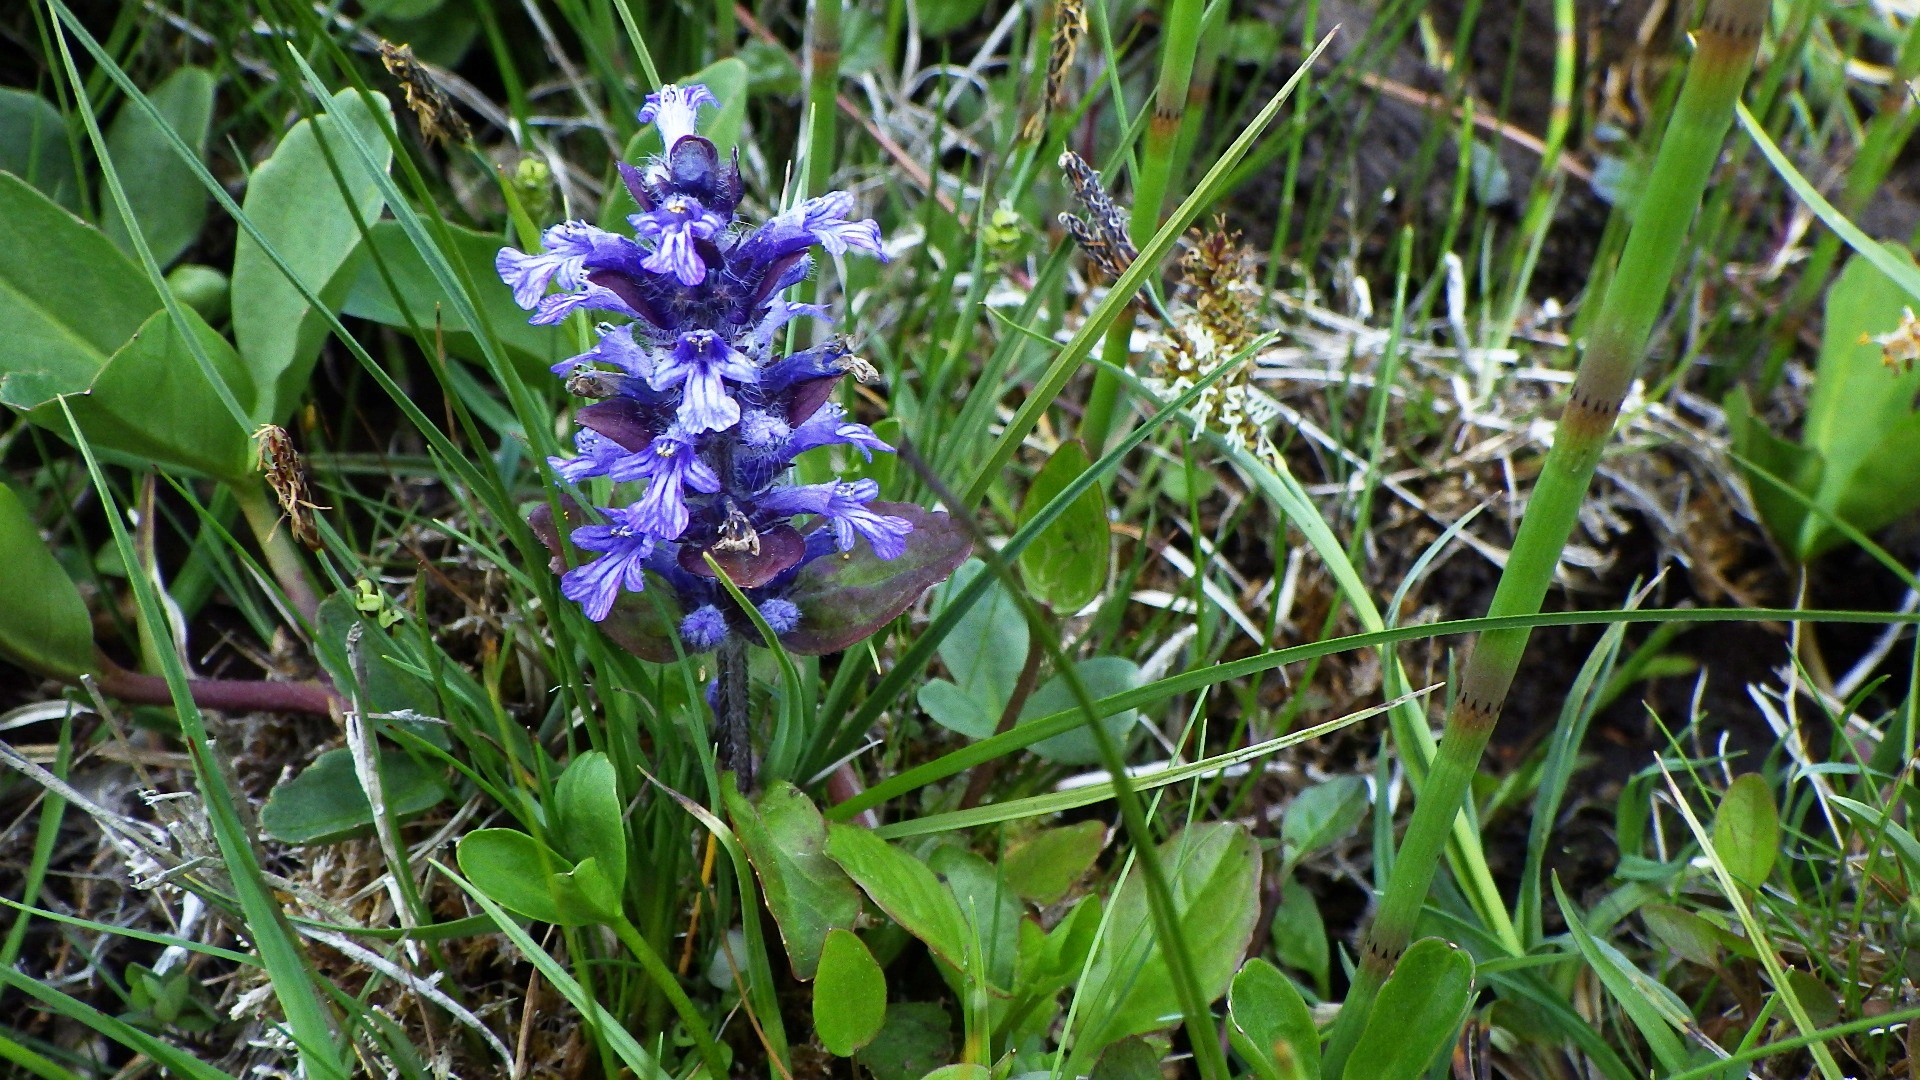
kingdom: Plantae
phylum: Tracheophyta
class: Magnoliopsida
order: Lamiales
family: Lamiaceae
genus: Ajuga
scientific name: Ajuga reptans
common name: Krybende læbeløs
